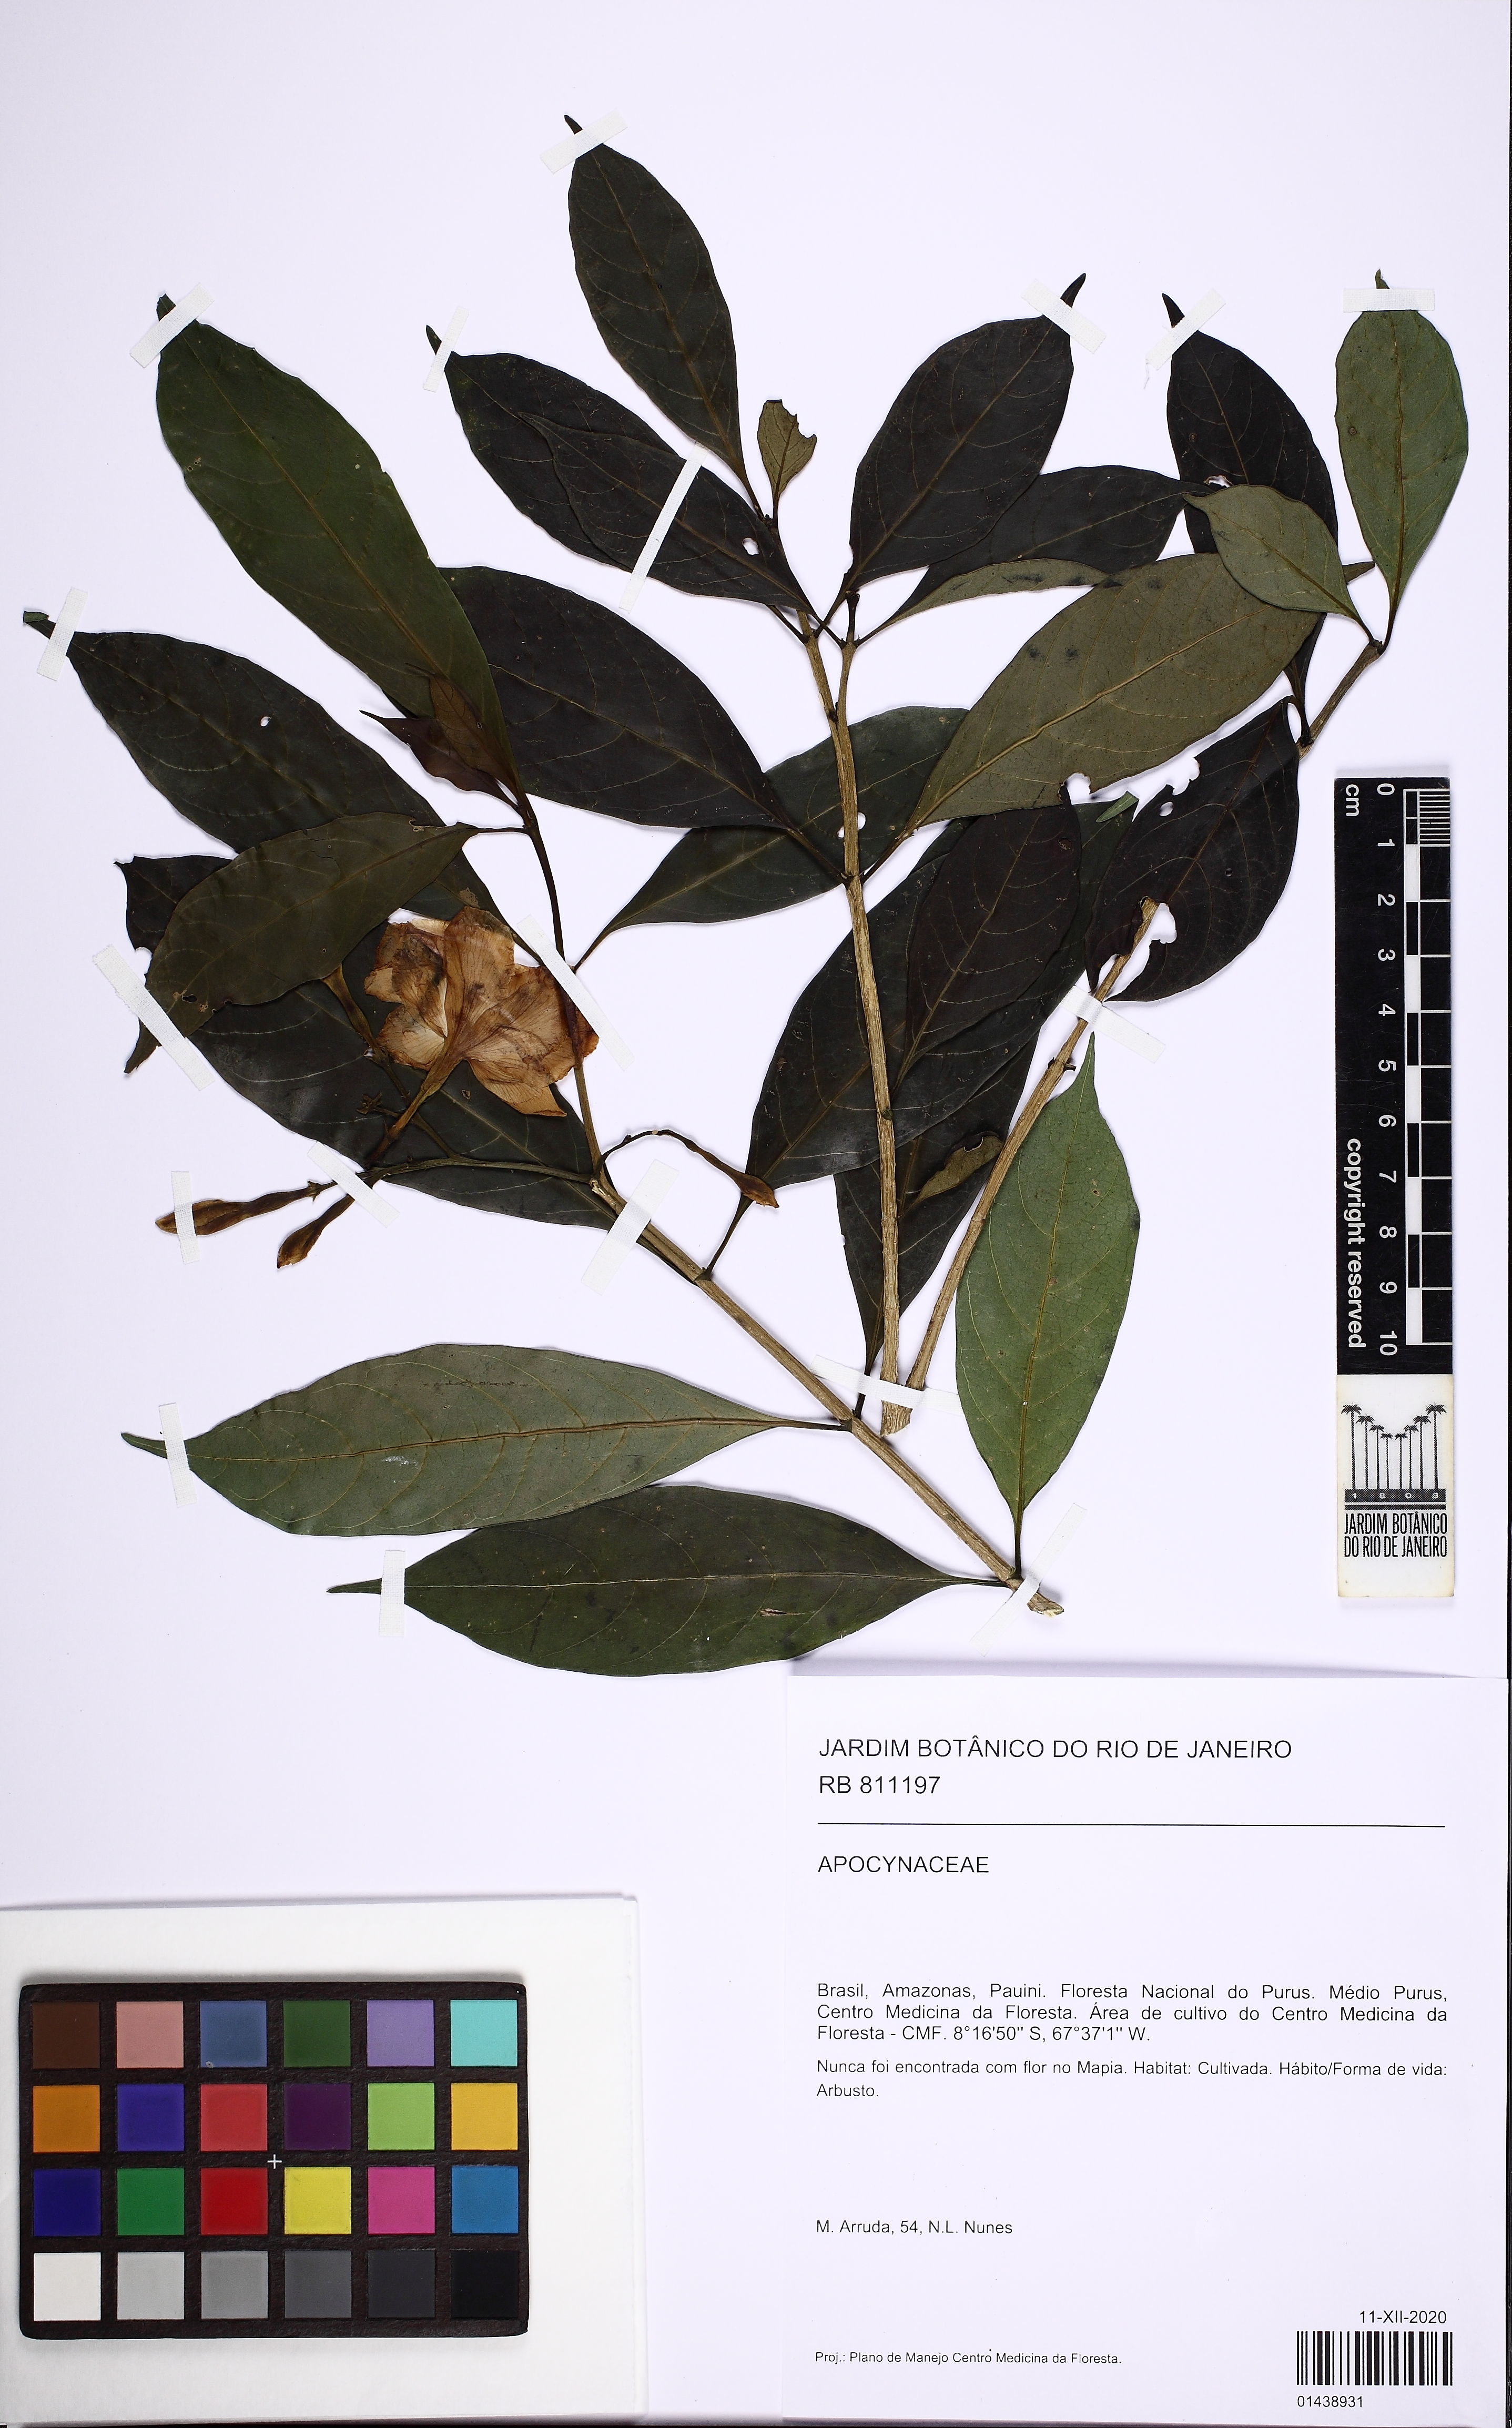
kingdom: Plantae
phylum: Tracheophyta
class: Magnoliopsida
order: Gentianales
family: Apocynaceae
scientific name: Apocynaceae
